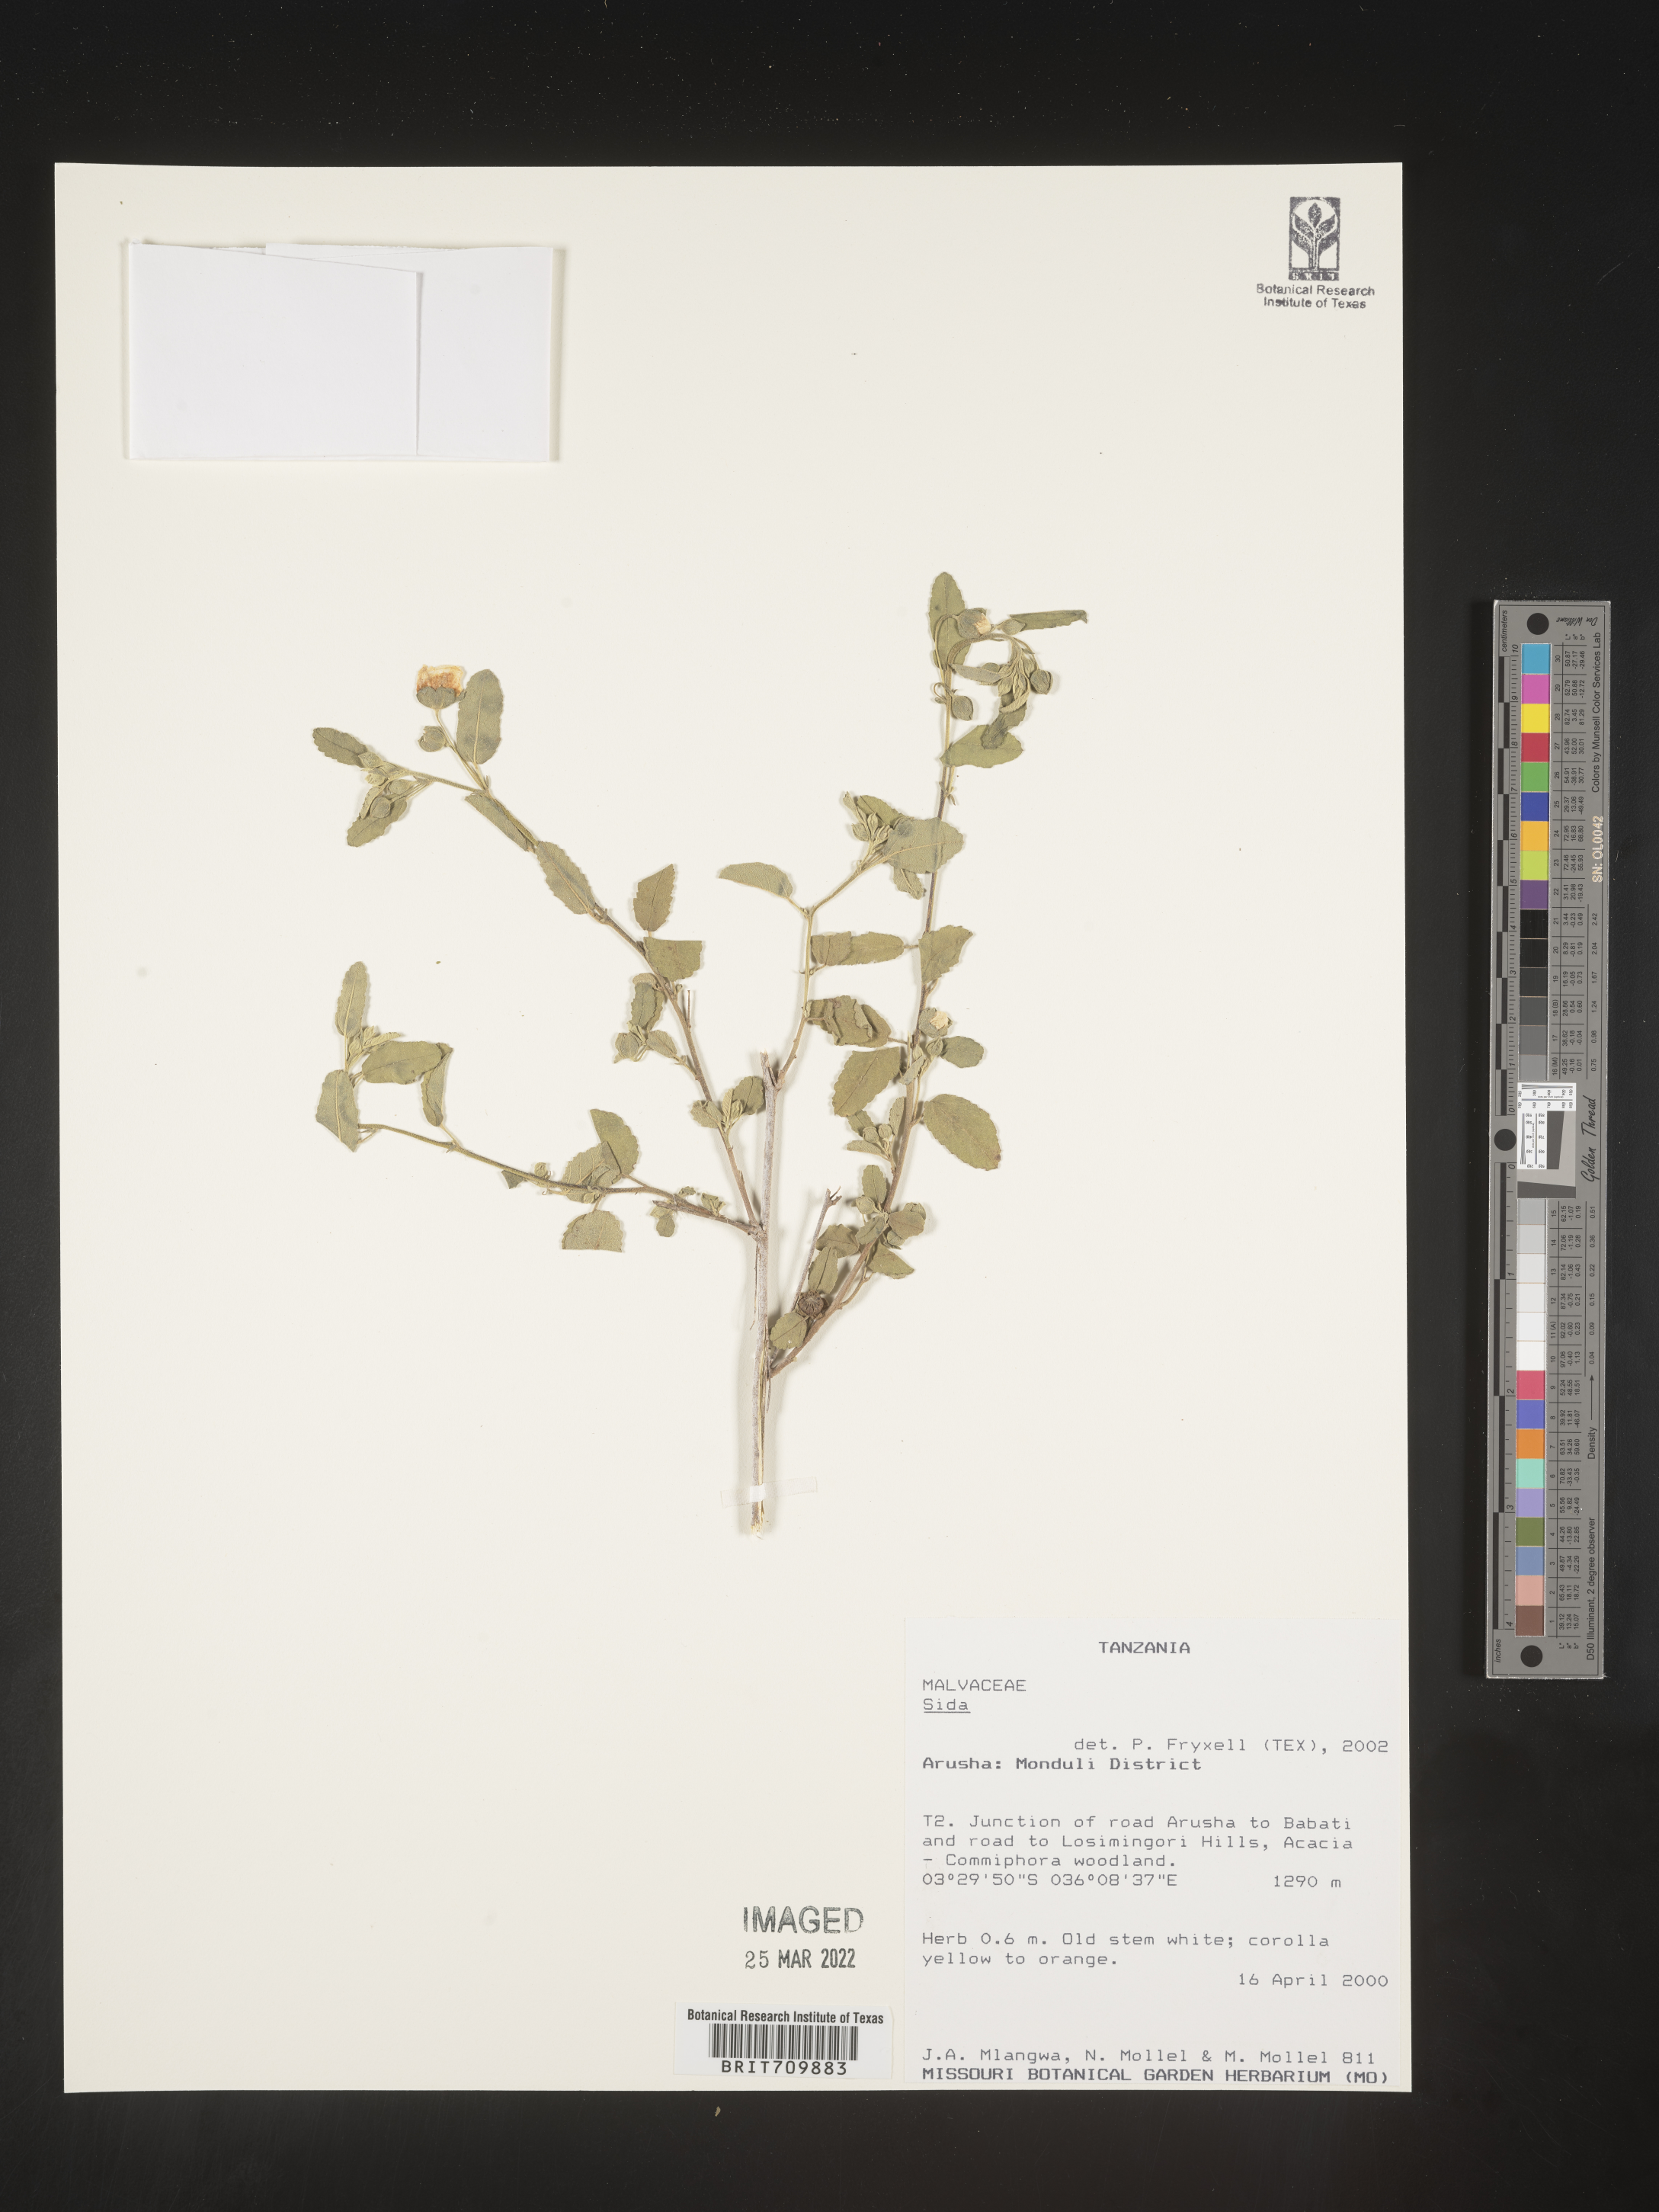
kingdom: Plantae
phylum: Tracheophyta
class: Magnoliopsida
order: Malvales
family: Malvaceae
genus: Sida
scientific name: Sida
